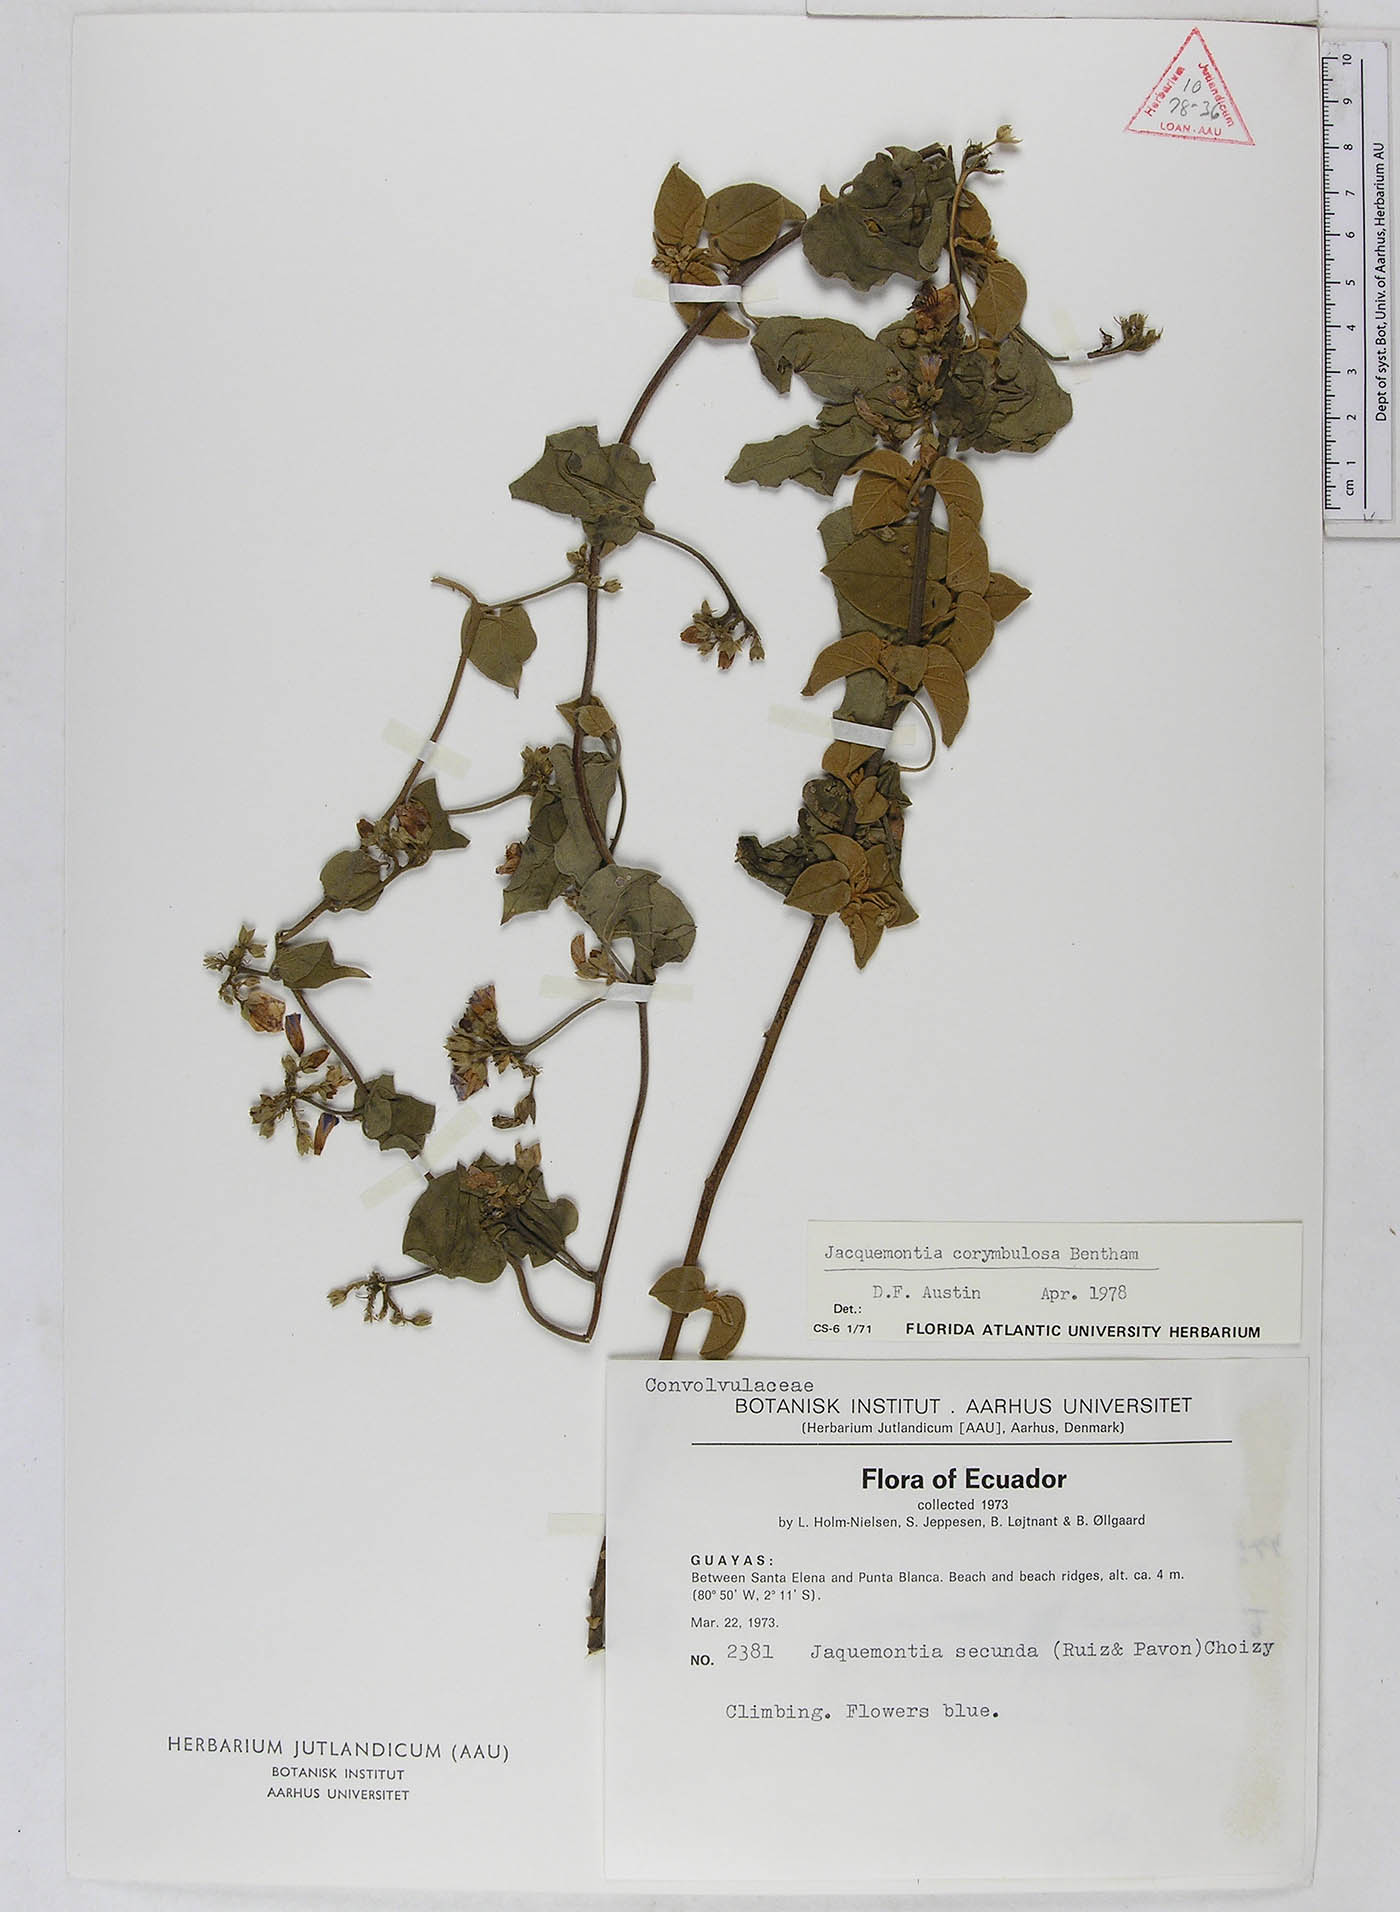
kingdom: Plantae
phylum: Tracheophyta
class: Magnoliopsida
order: Solanales
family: Convolvulaceae
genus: Jacquemontia
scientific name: Jacquemontia corymbulosa
